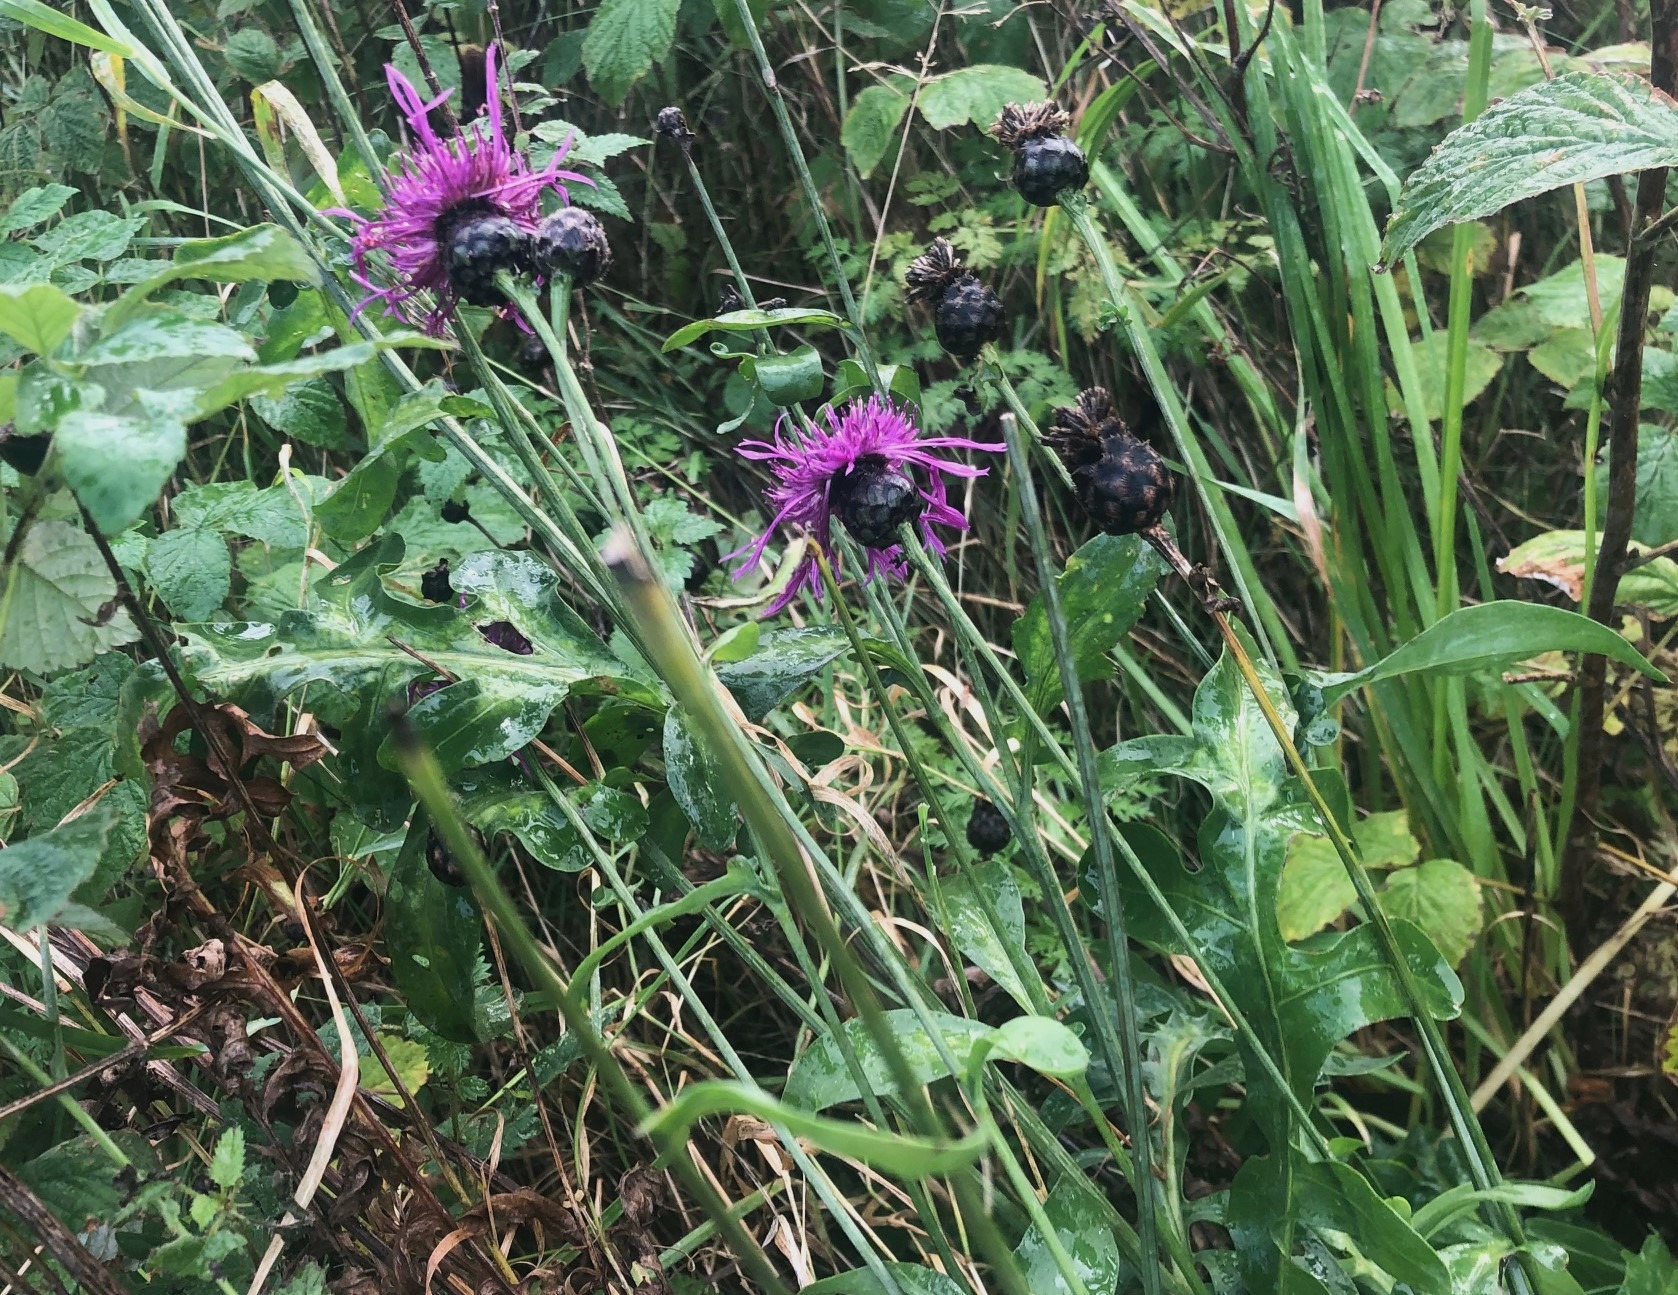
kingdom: Plantae
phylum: Tracheophyta
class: Magnoliopsida
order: Asterales
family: Asteraceae
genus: Centaurea
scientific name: Centaurea scabiosa
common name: Stor knopurt
